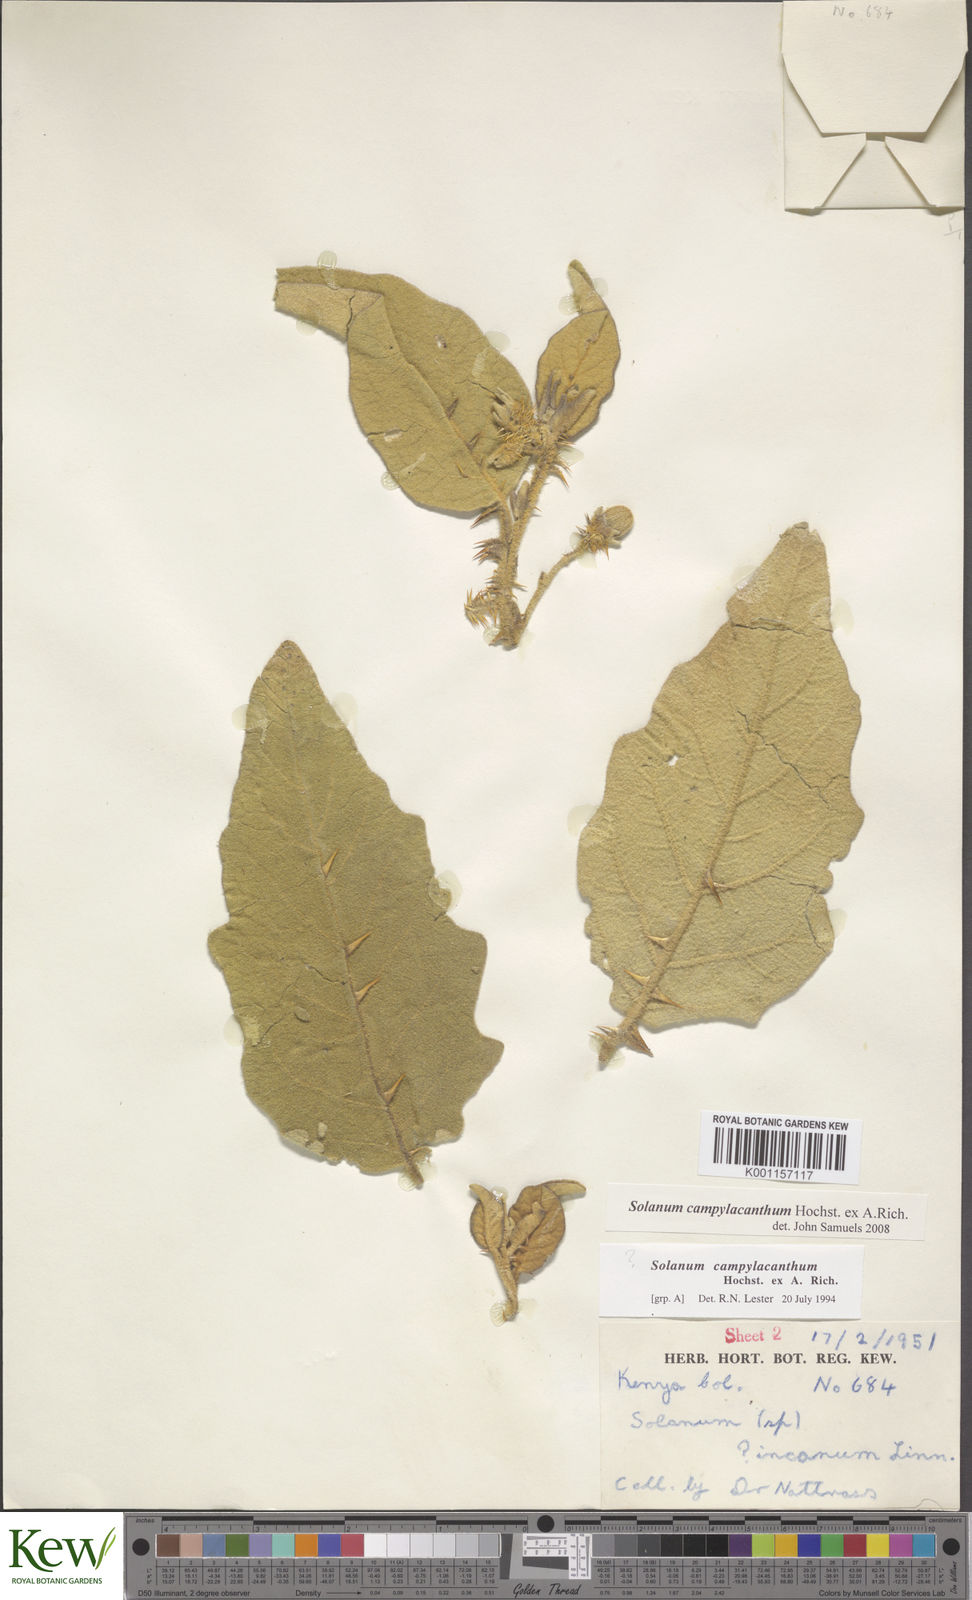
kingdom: Plantae
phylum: Tracheophyta
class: Magnoliopsida
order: Solanales
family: Solanaceae
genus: Solanum
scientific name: Solanum campylacanthum
